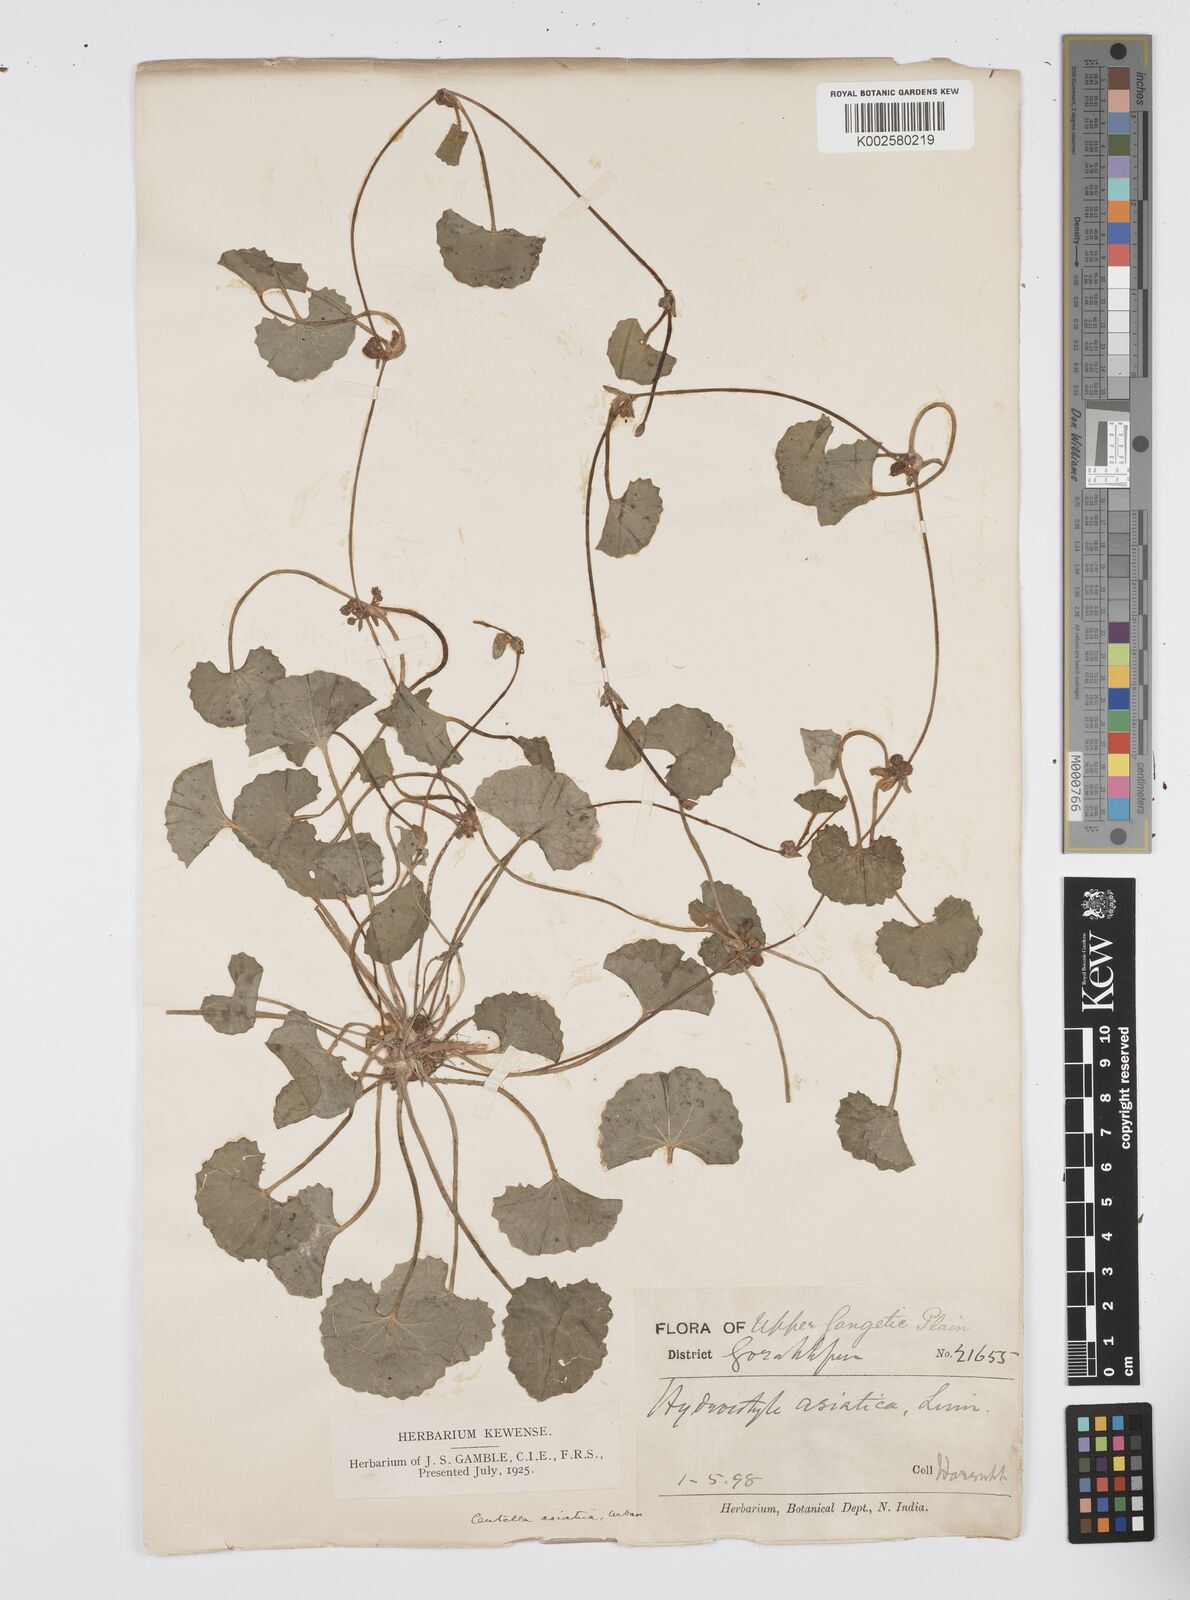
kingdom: Plantae
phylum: Tracheophyta
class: Magnoliopsida
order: Apiales
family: Apiaceae
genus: Centella
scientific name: Centella asiatica
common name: Spadeleaf
